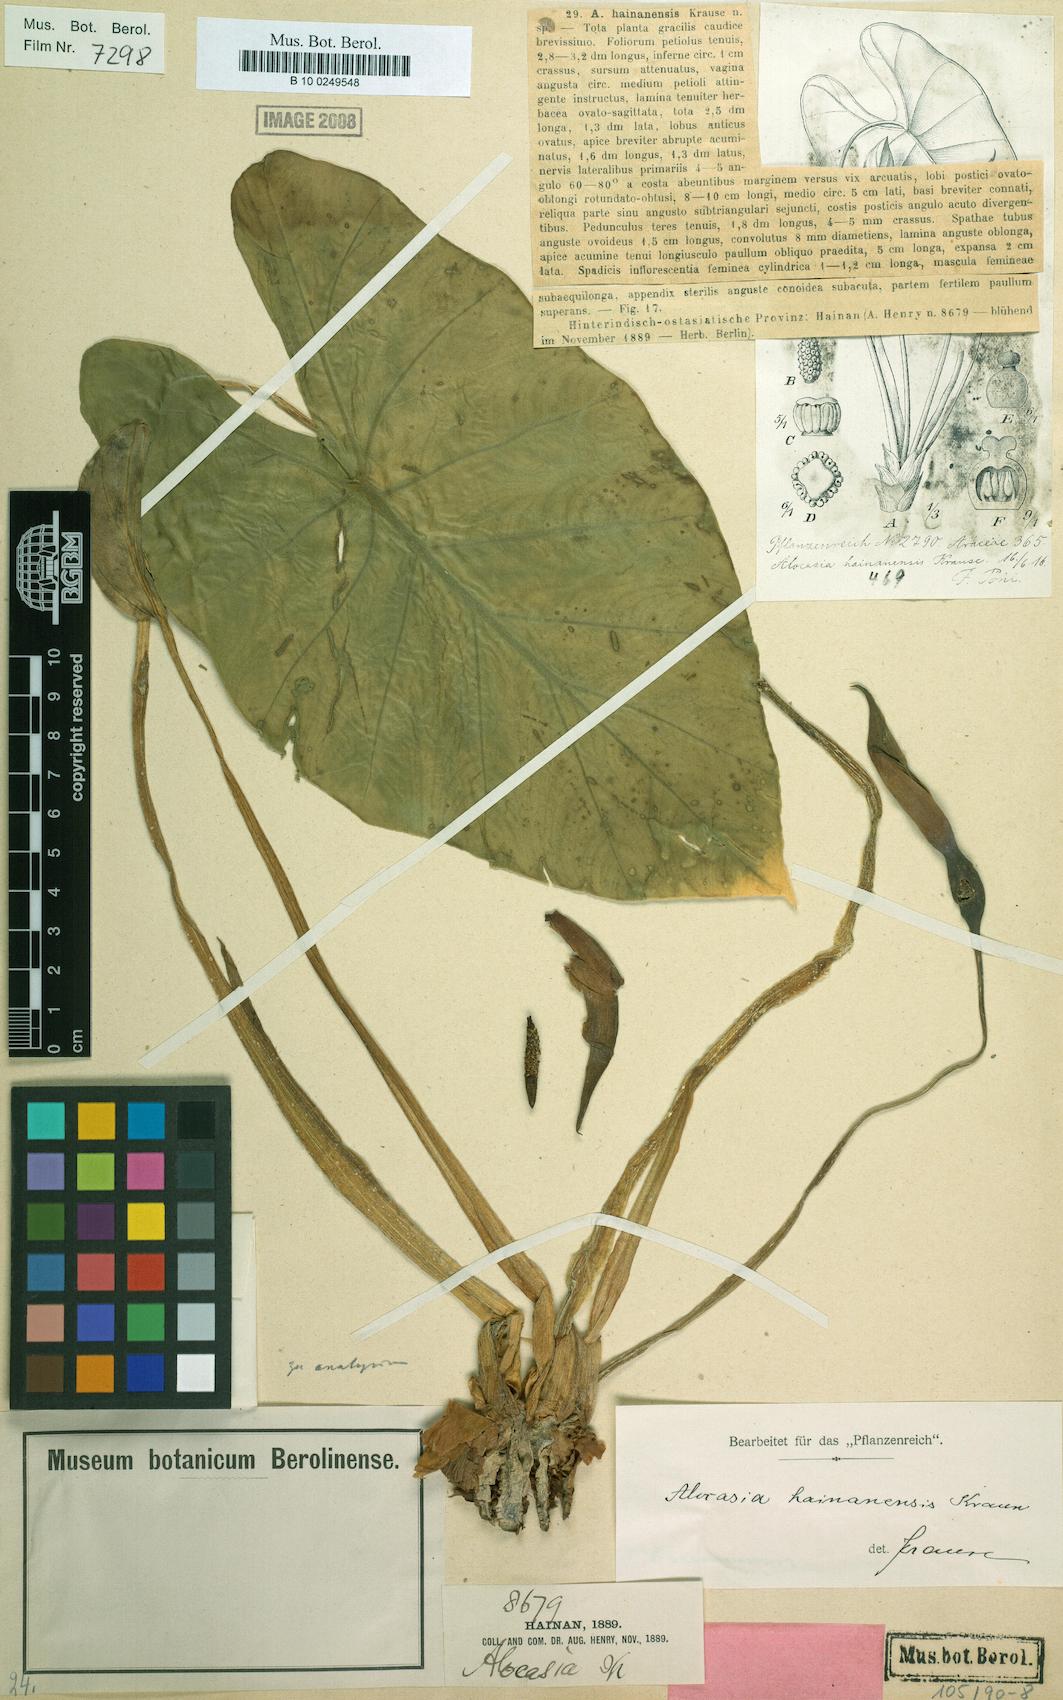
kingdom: Plantae
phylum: Tracheophyta
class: Liliopsida
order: Alismatales
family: Araceae
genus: Alocasia
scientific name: Alocasia hainanica
